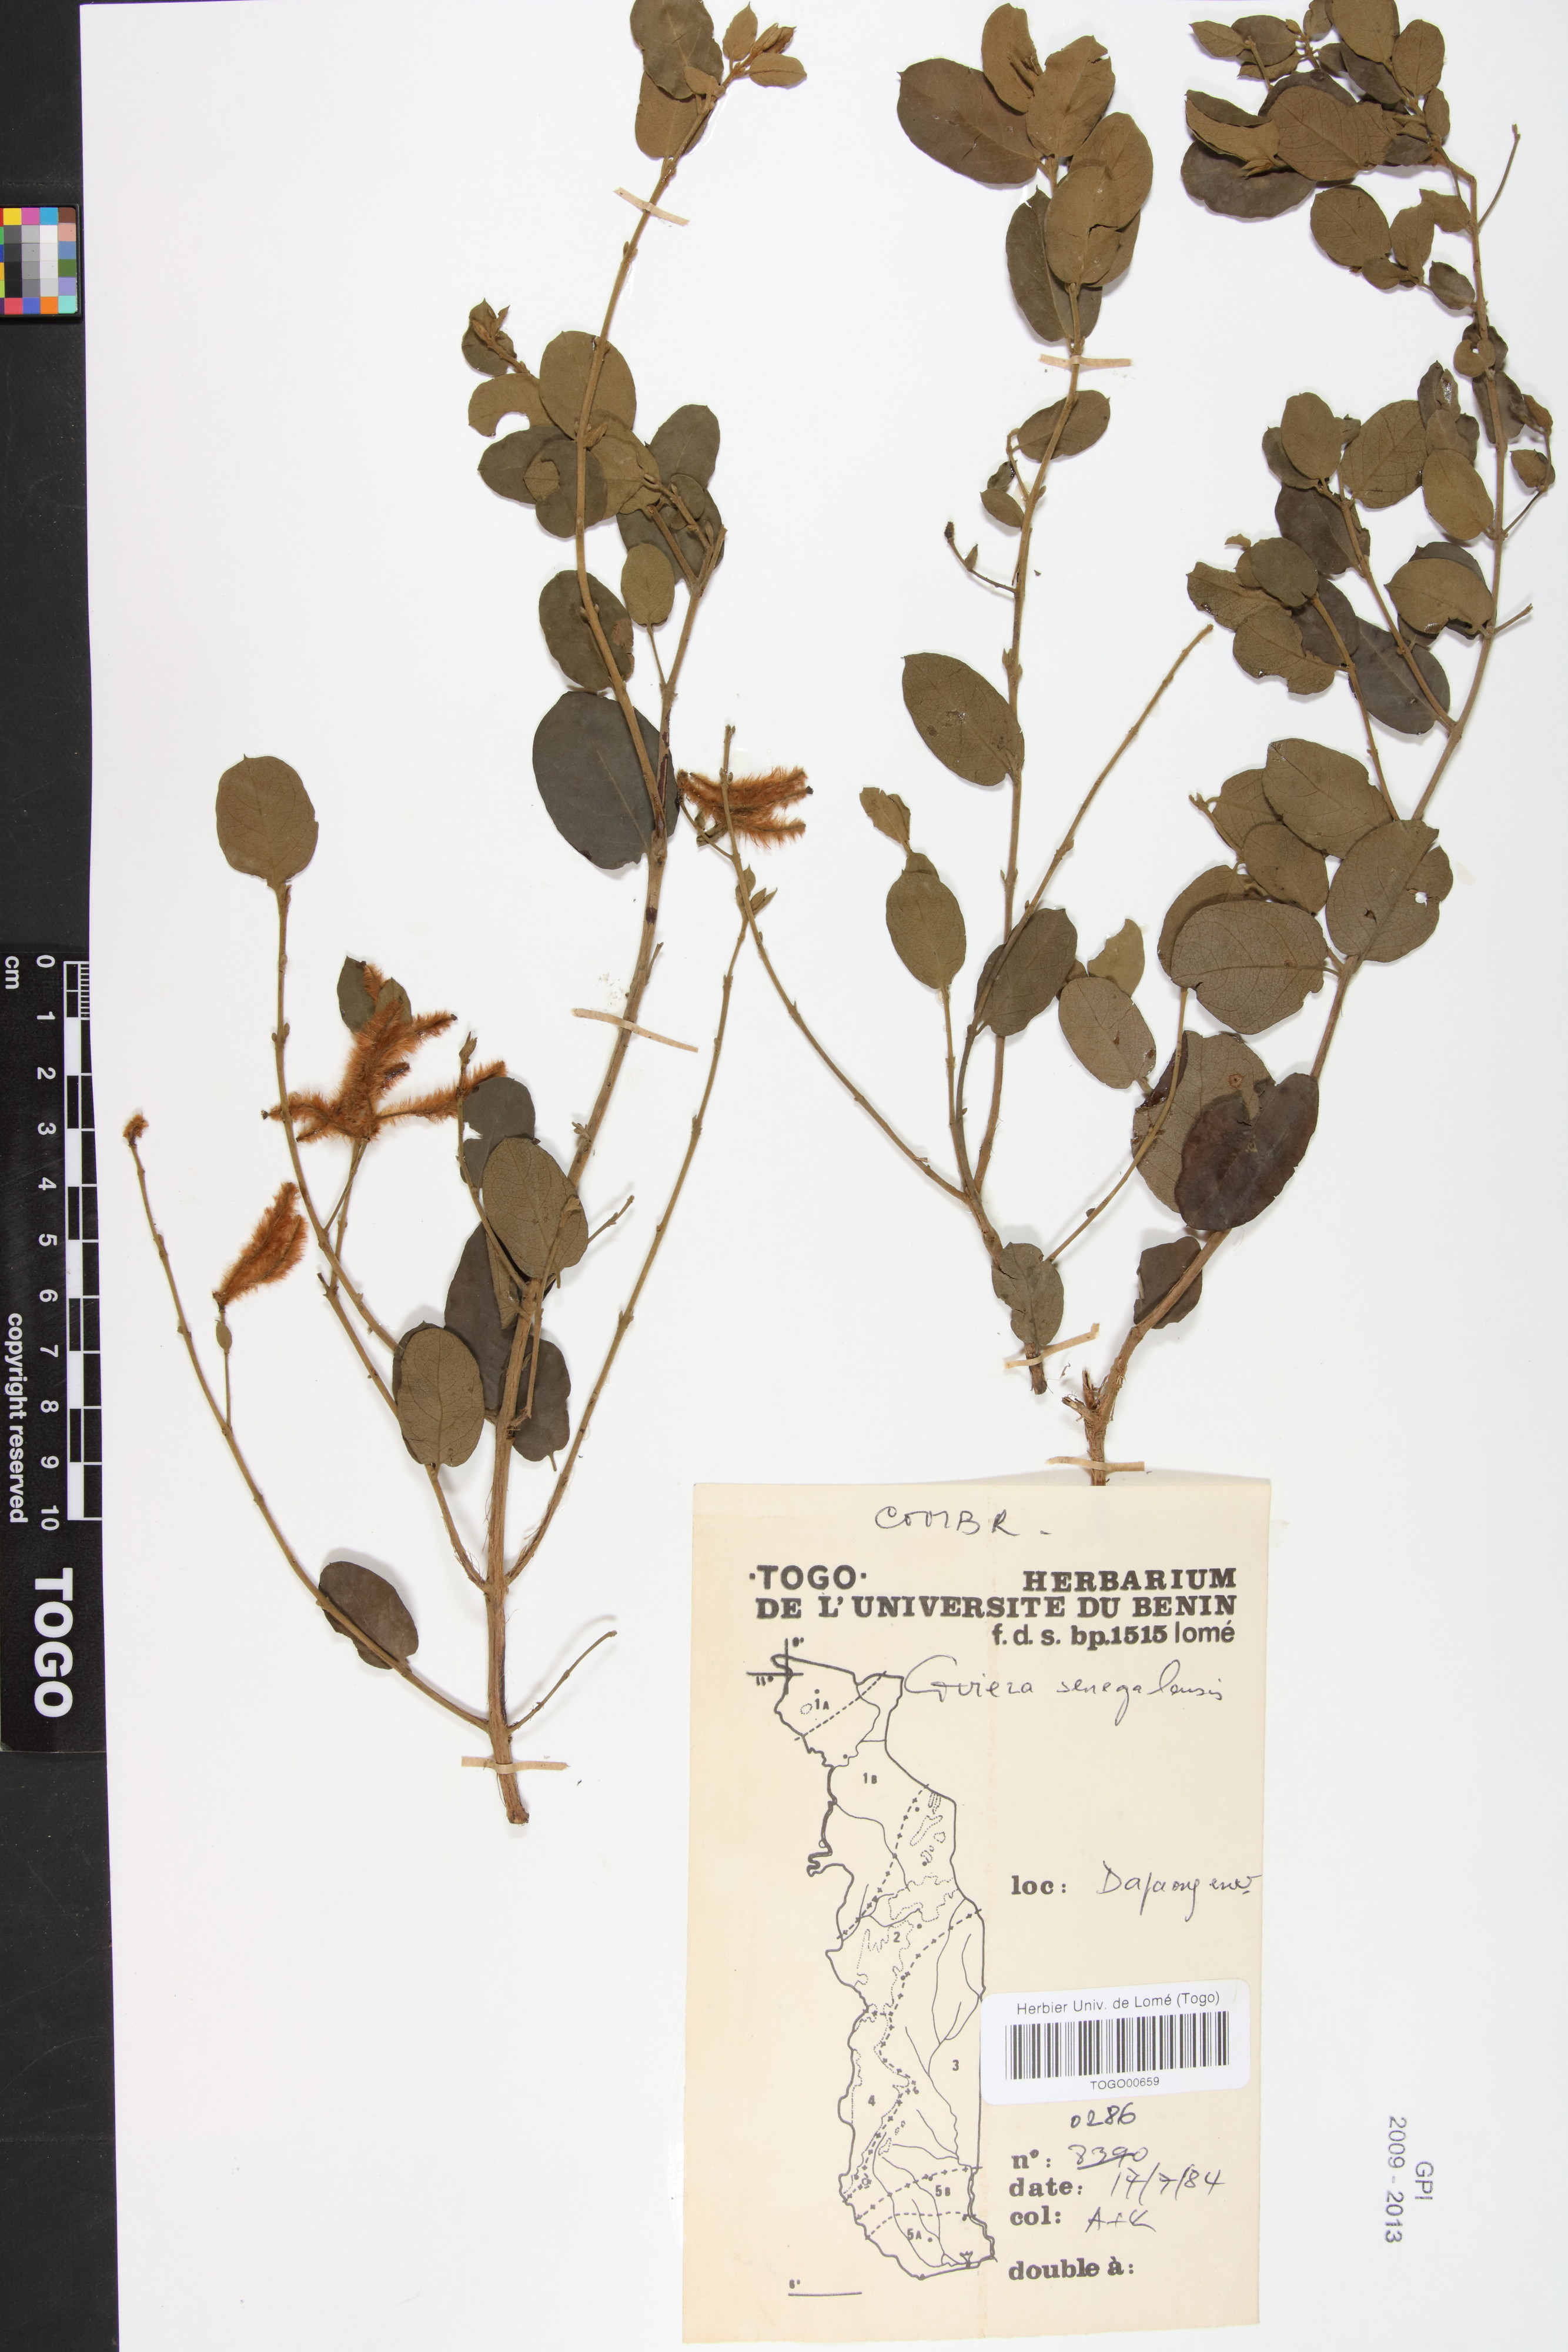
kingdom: Plantae
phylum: Tracheophyta
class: Magnoliopsida
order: Myrtales
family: Combretaceae
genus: Guiera
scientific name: Guiera senegalensis
